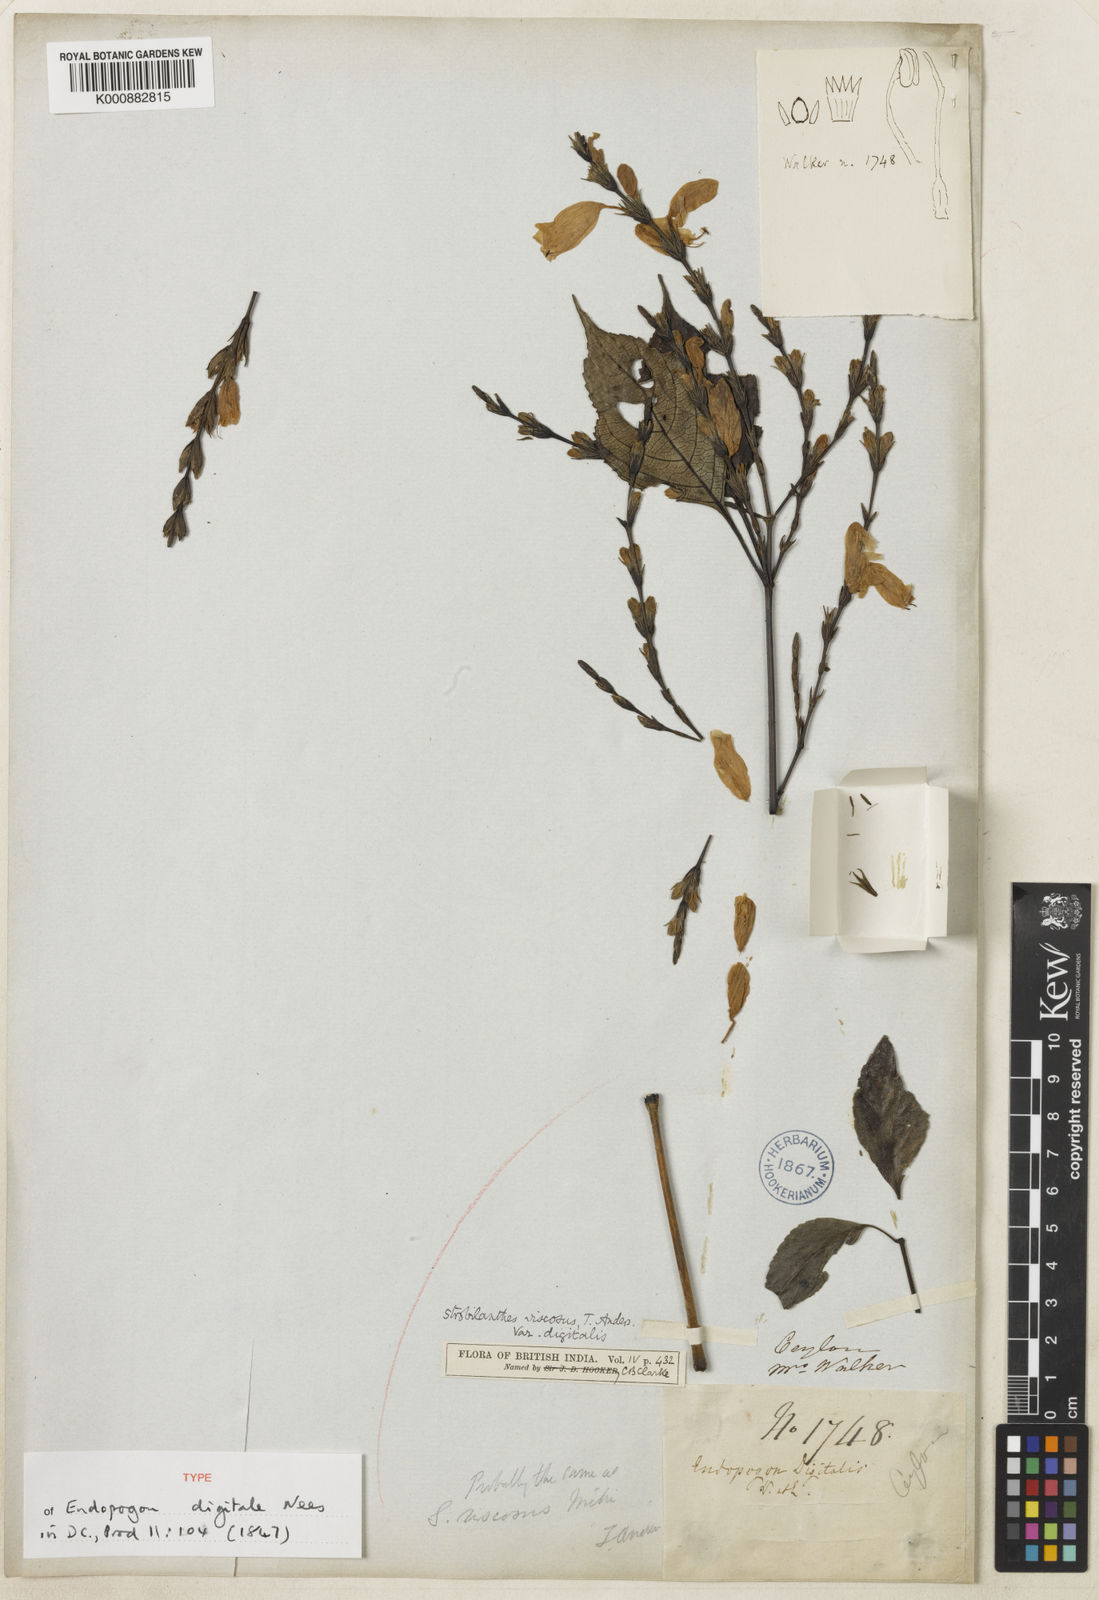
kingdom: Plantae
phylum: Tracheophyta
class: Magnoliopsida
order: Lamiales
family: Acanthaceae
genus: Strobilanthes
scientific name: Strobilanthes viscosa
